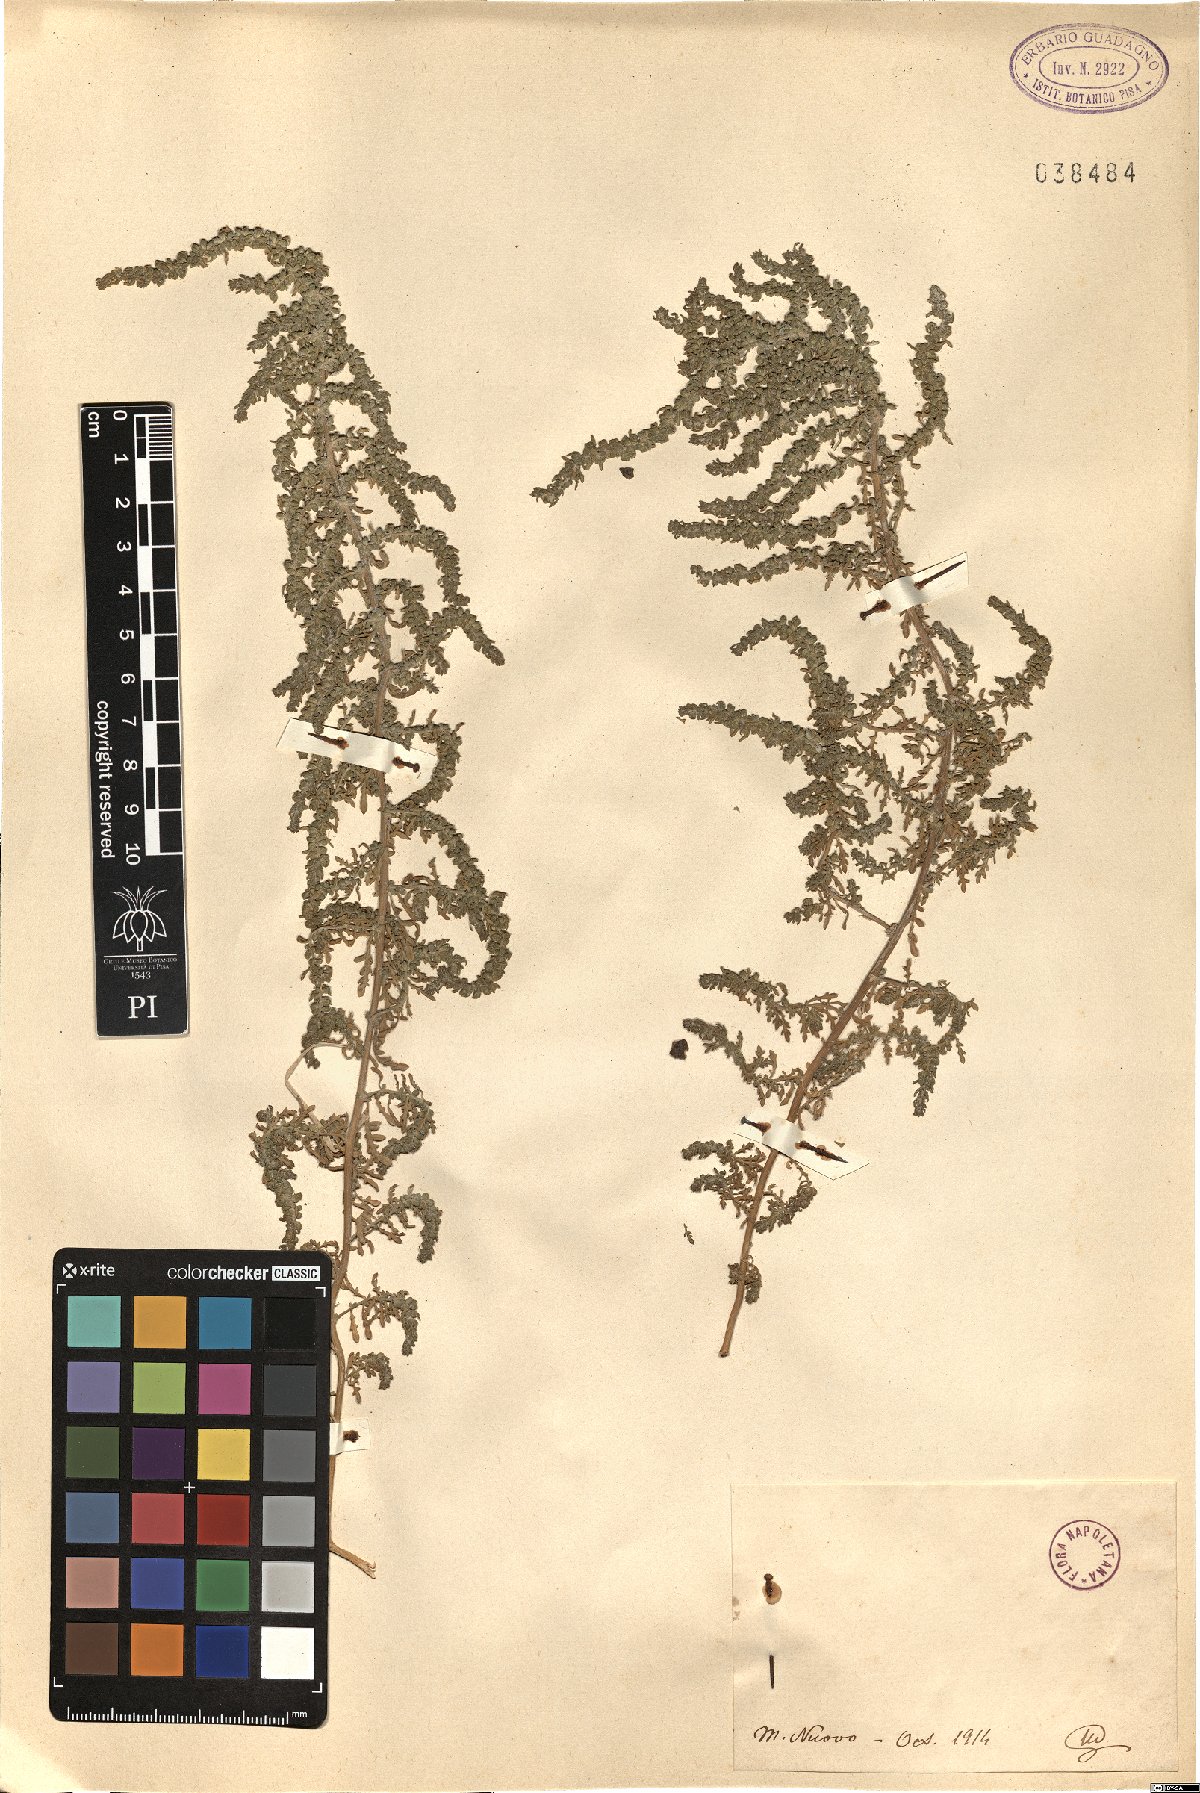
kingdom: Plantae
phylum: Tracheophyta
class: Magnoliopsida
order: Caryophyllales
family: Amaranthaceae
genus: Dysphania
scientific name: Dysphania
